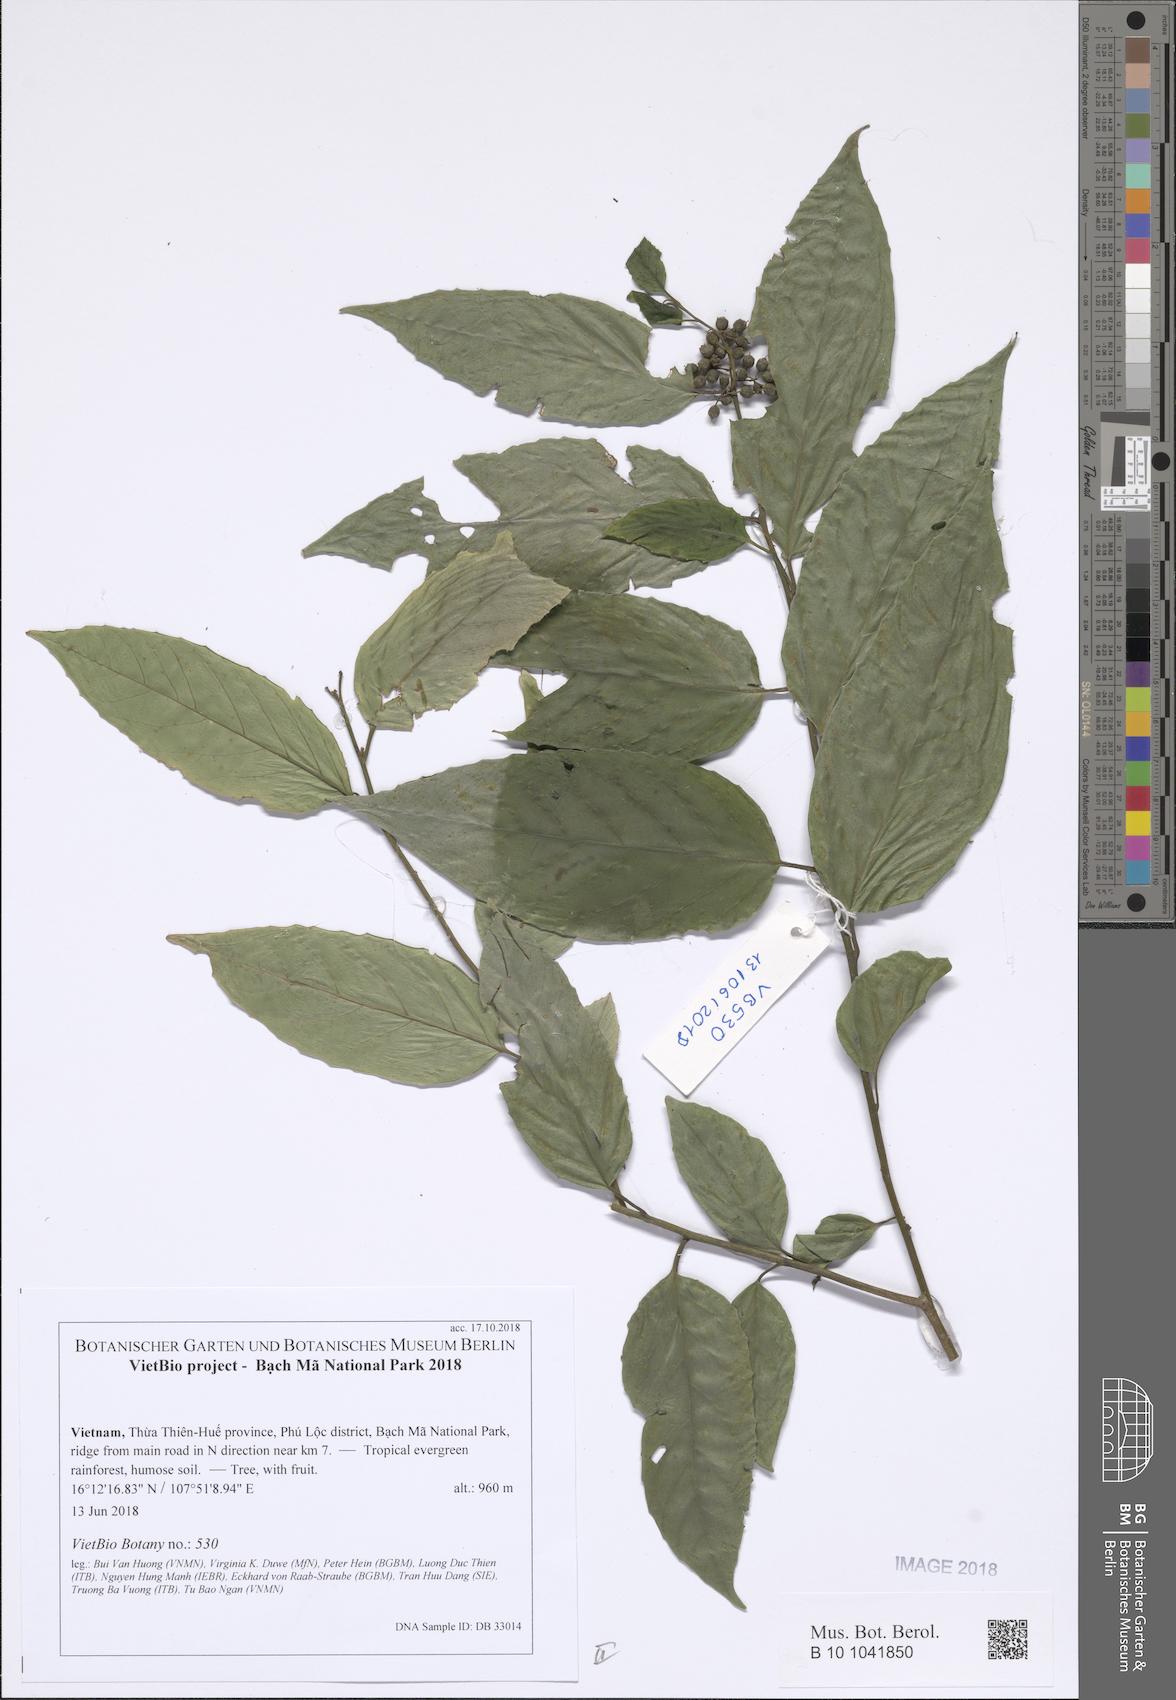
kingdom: Plantae
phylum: Tracheophyta
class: Magnoliopsida
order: Ericales
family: Primulaceae
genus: Maesa
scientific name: Maesa perlaria
